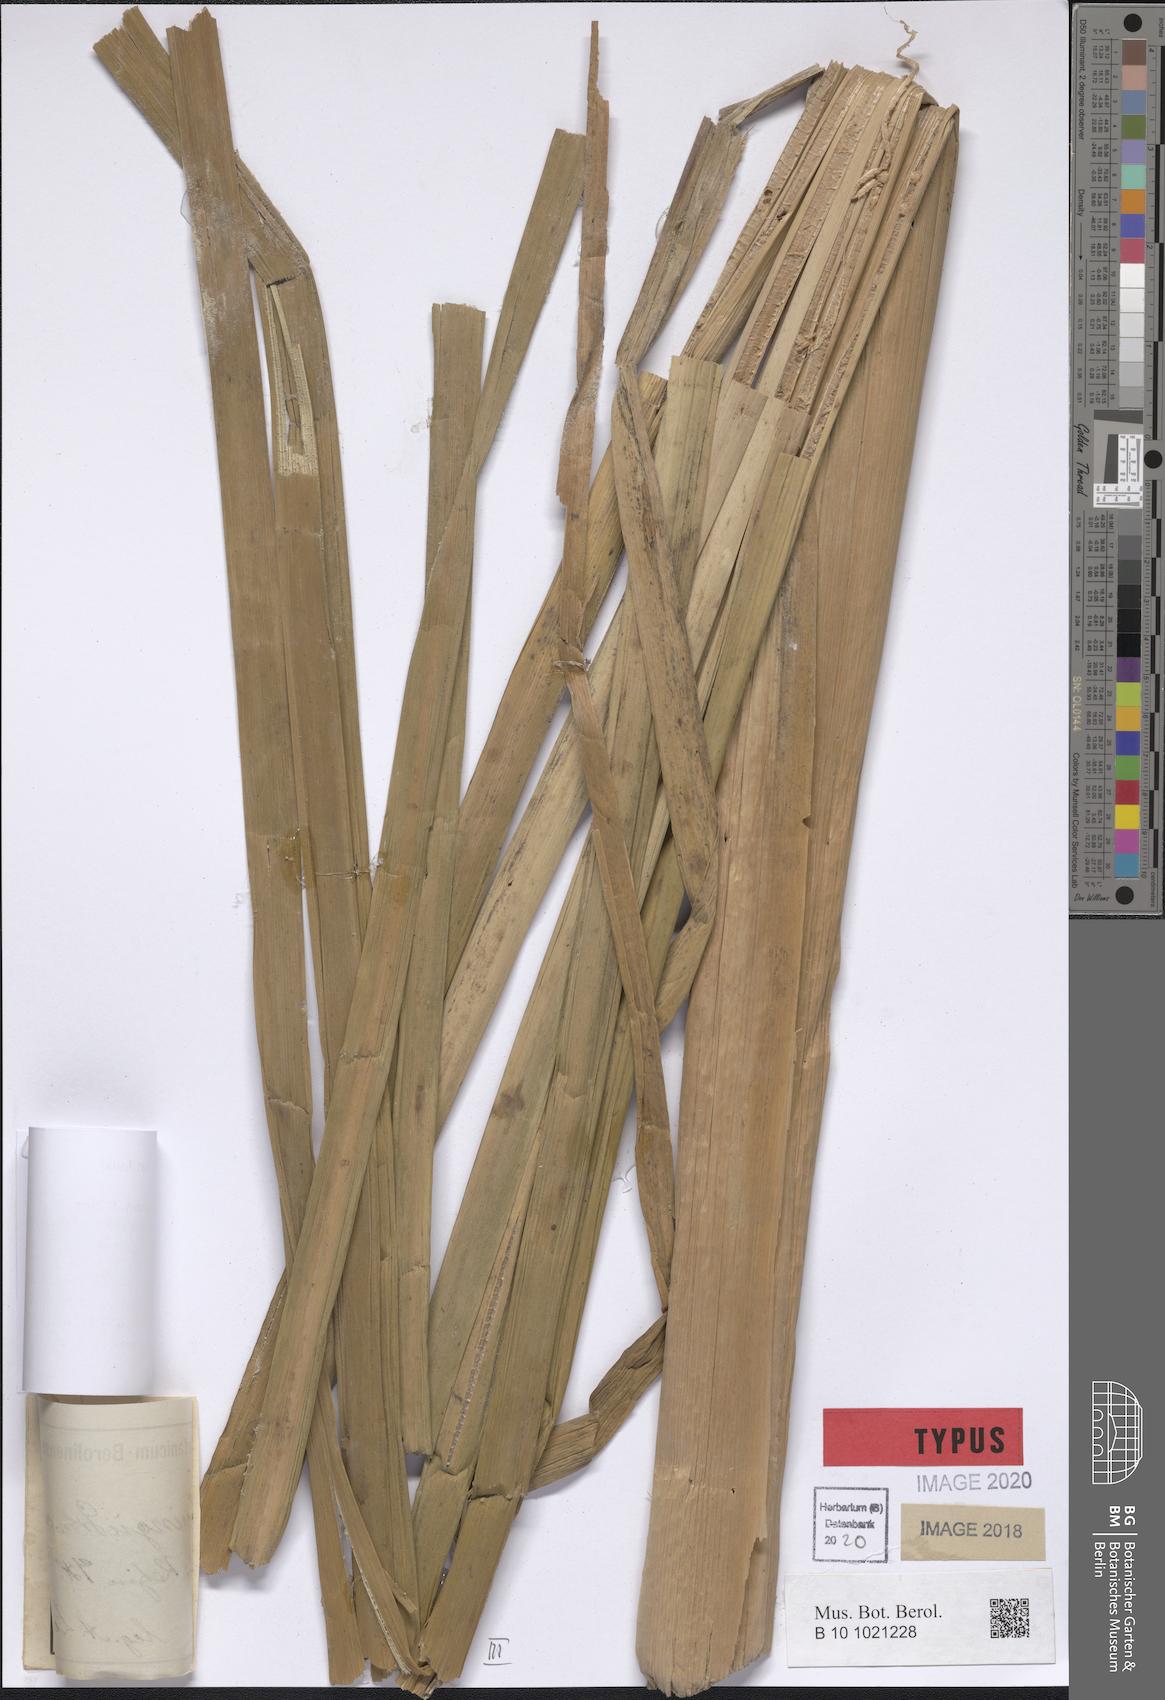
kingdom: Plantae
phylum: Tracheophyta
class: Liliopsida
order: Poales
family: Typhaceae
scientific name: Typhaceae
